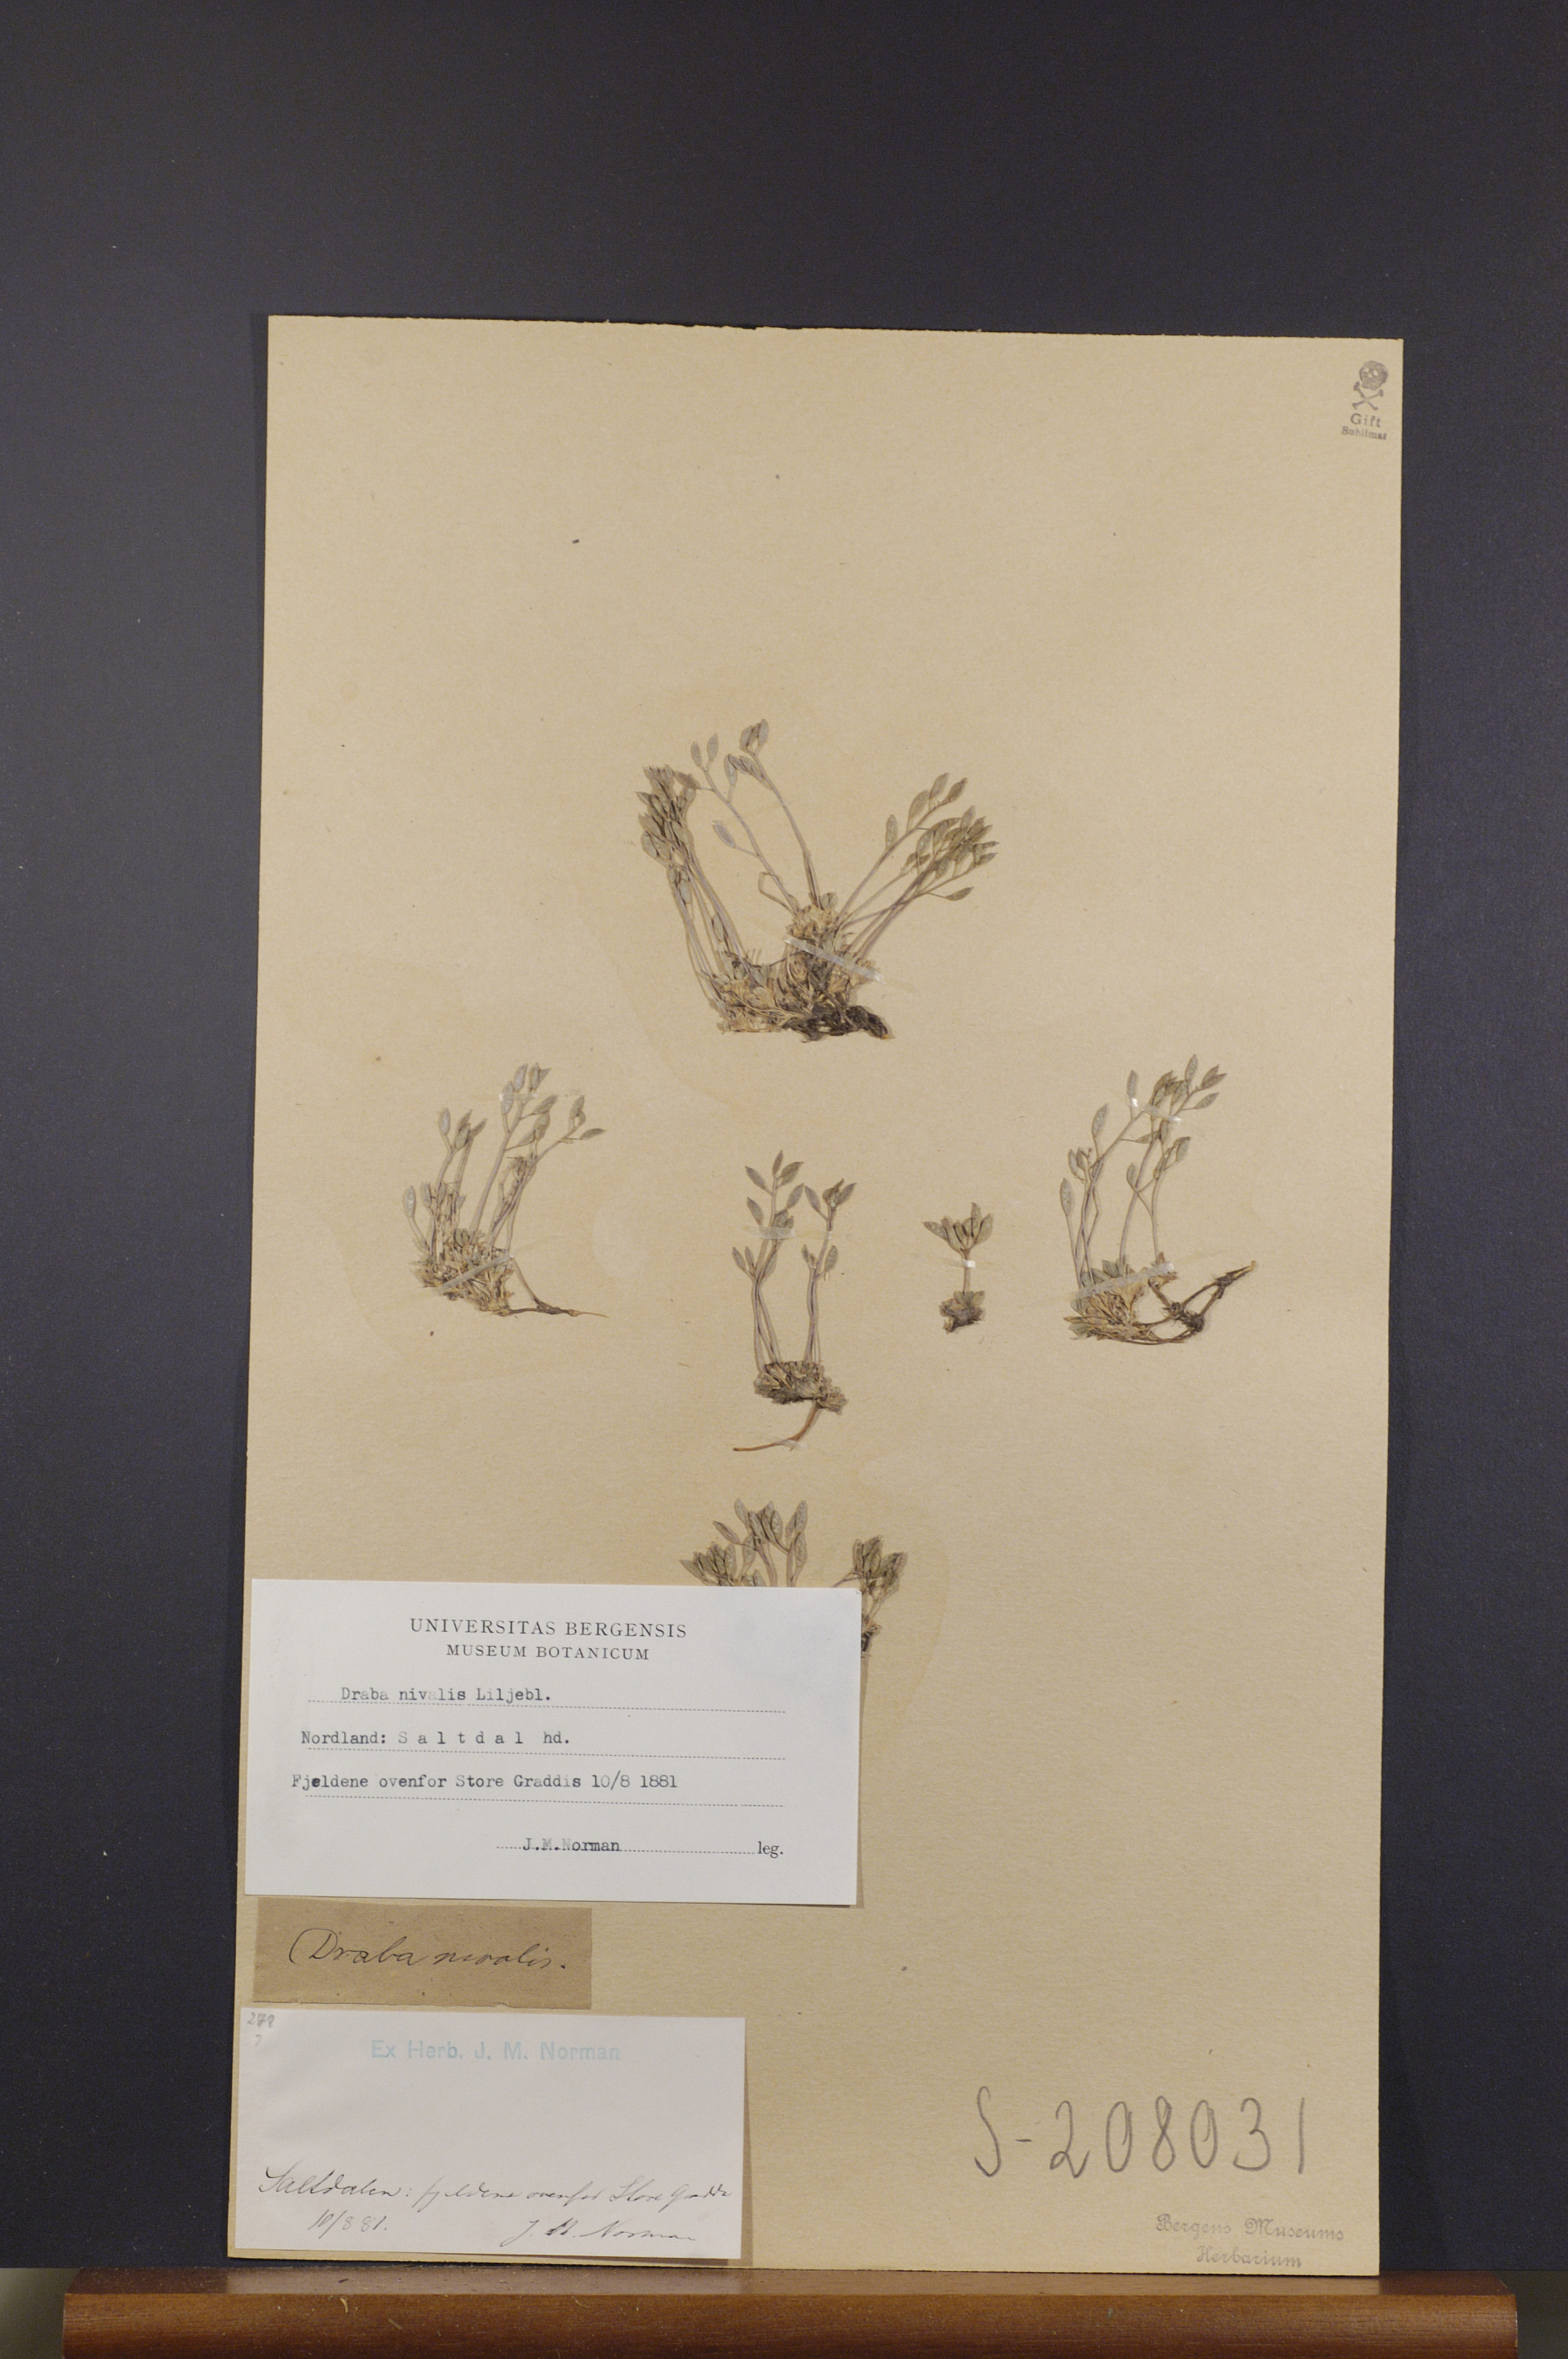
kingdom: Plantae
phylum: Tracheophyta
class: Magnoliopsida
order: Brassicales
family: Brassicaceae
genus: Draba
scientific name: Draba nivalis
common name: Snow draba
